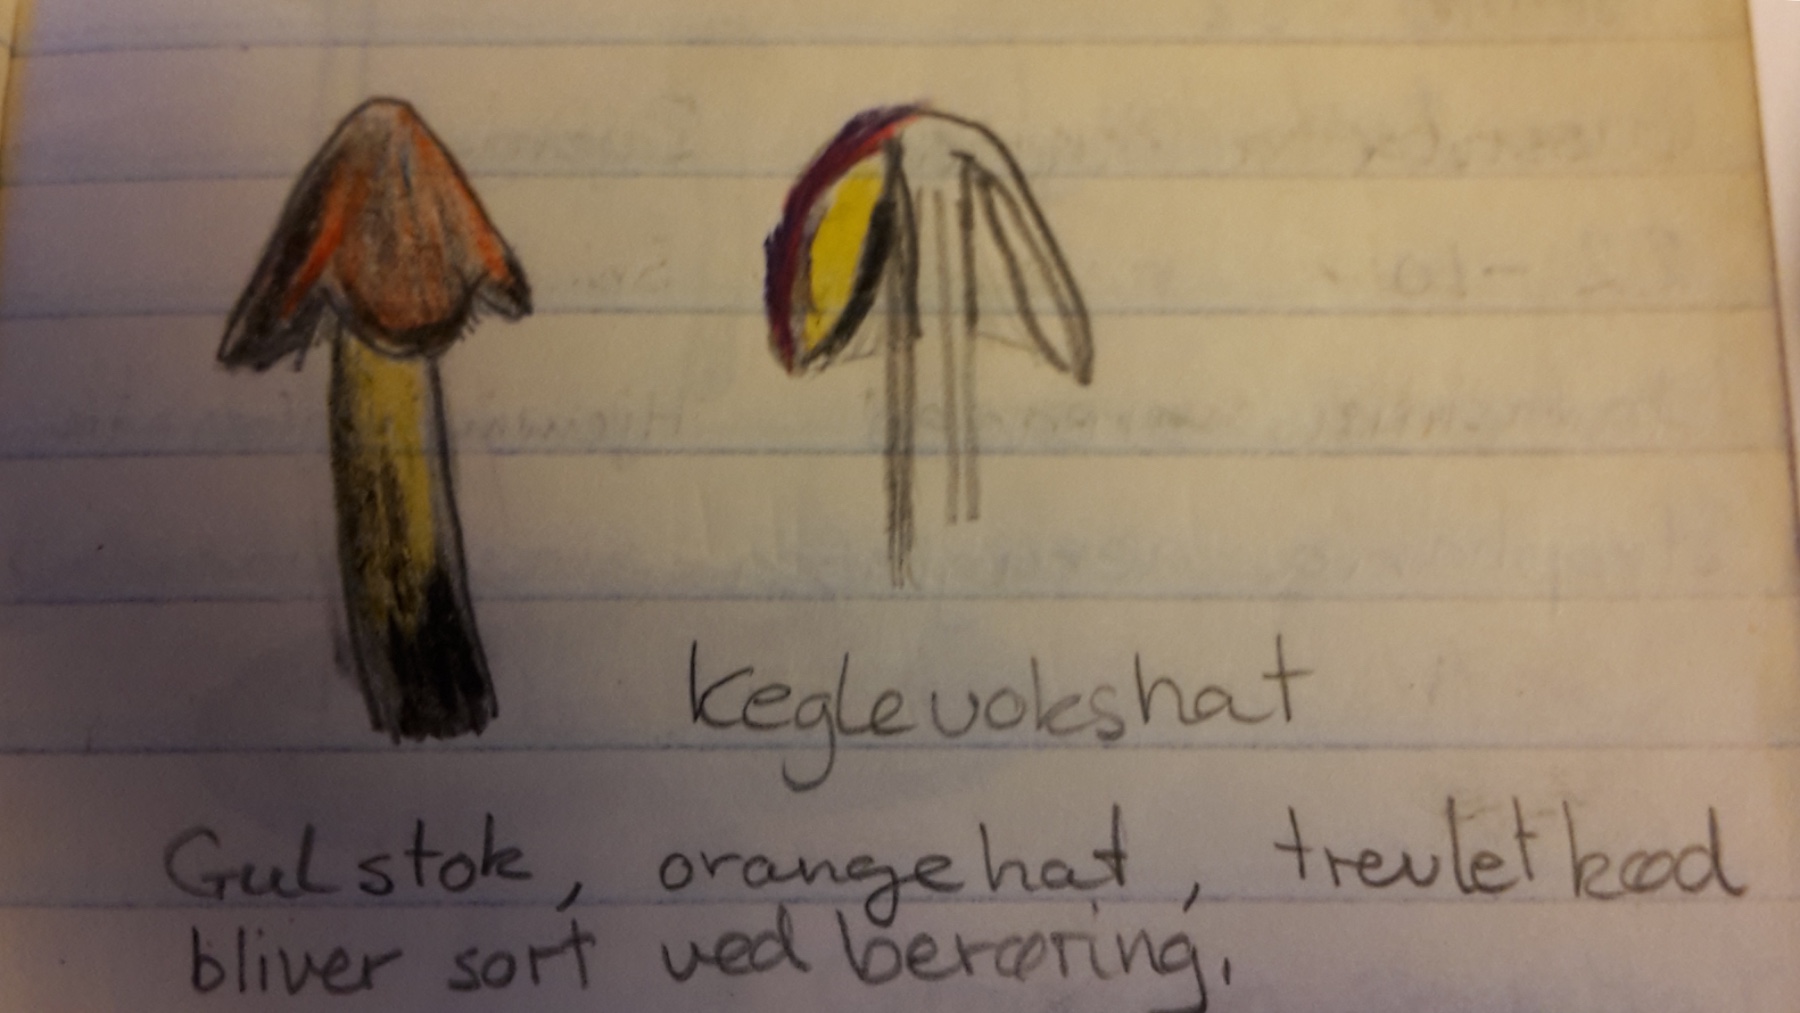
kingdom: Fungi
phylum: Basidiomycota
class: Agaricomycetes
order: Agaricales
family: Hygrophoraceae
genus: Hygrocybe
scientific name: Hygrocybe conica
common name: kegle-vokshat
